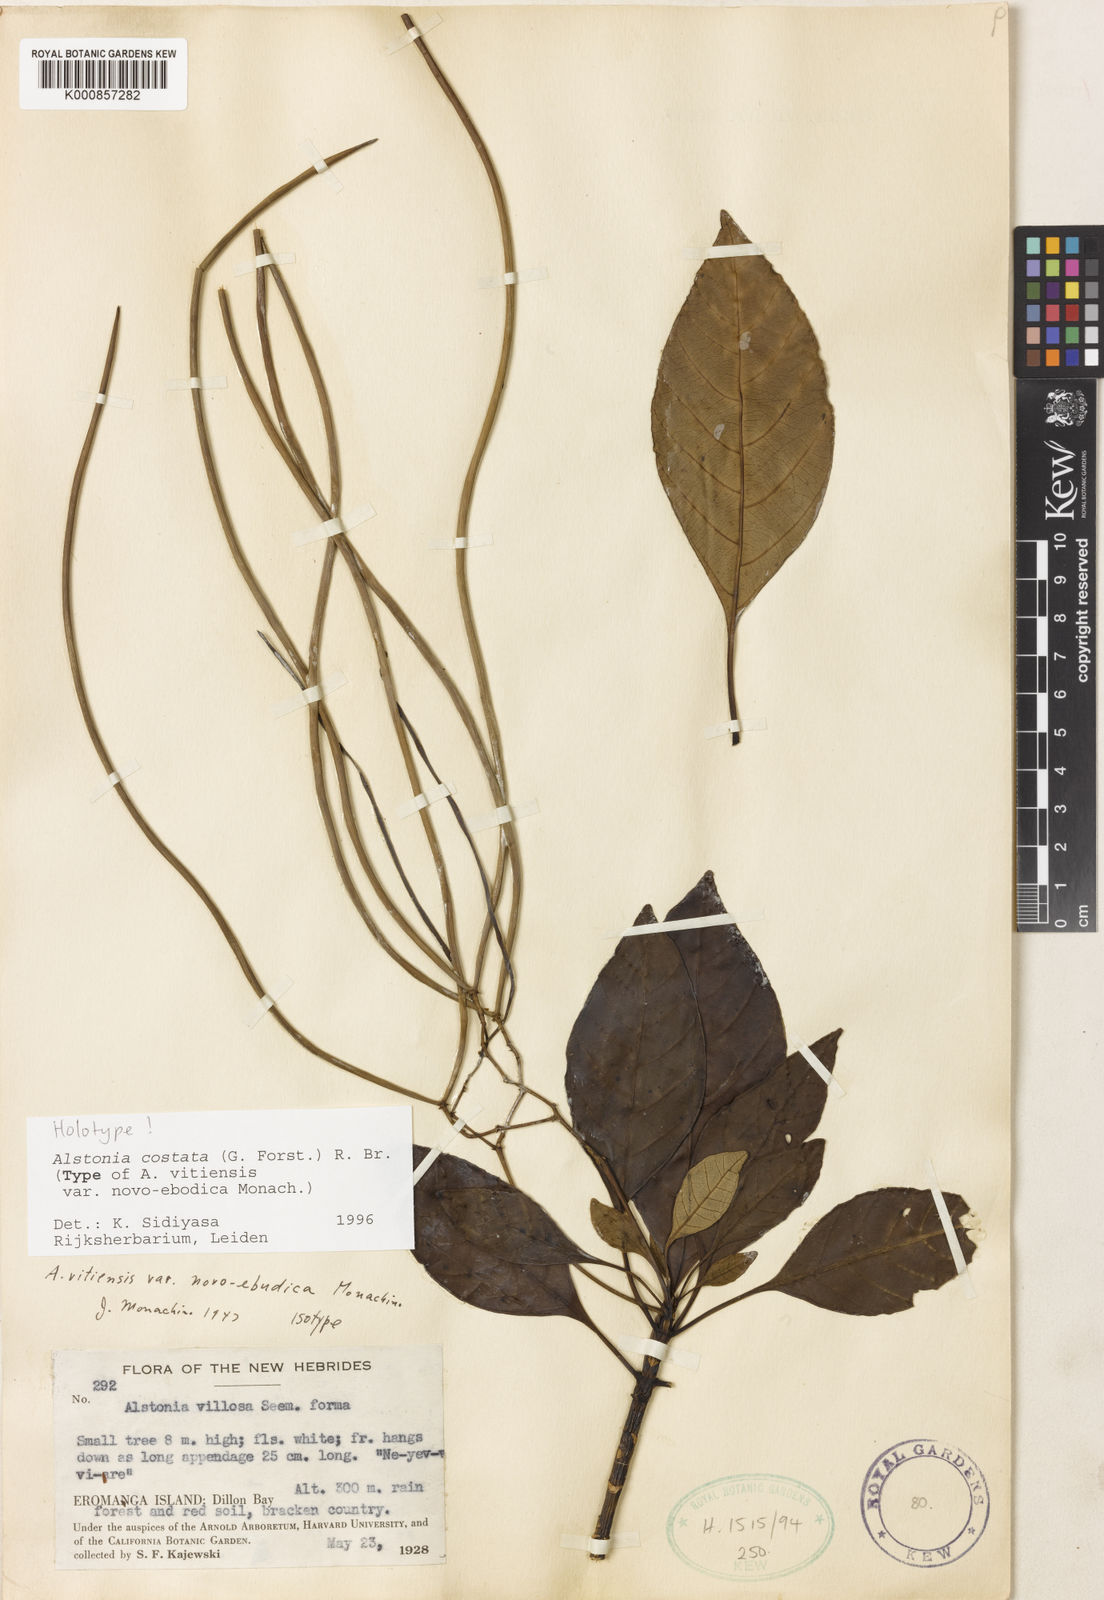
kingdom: Plantae
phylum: Tracheophyta
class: Magnoliopsida
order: Gentianales
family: Apocynaceae
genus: Alstonia
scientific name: Alstonia costata
